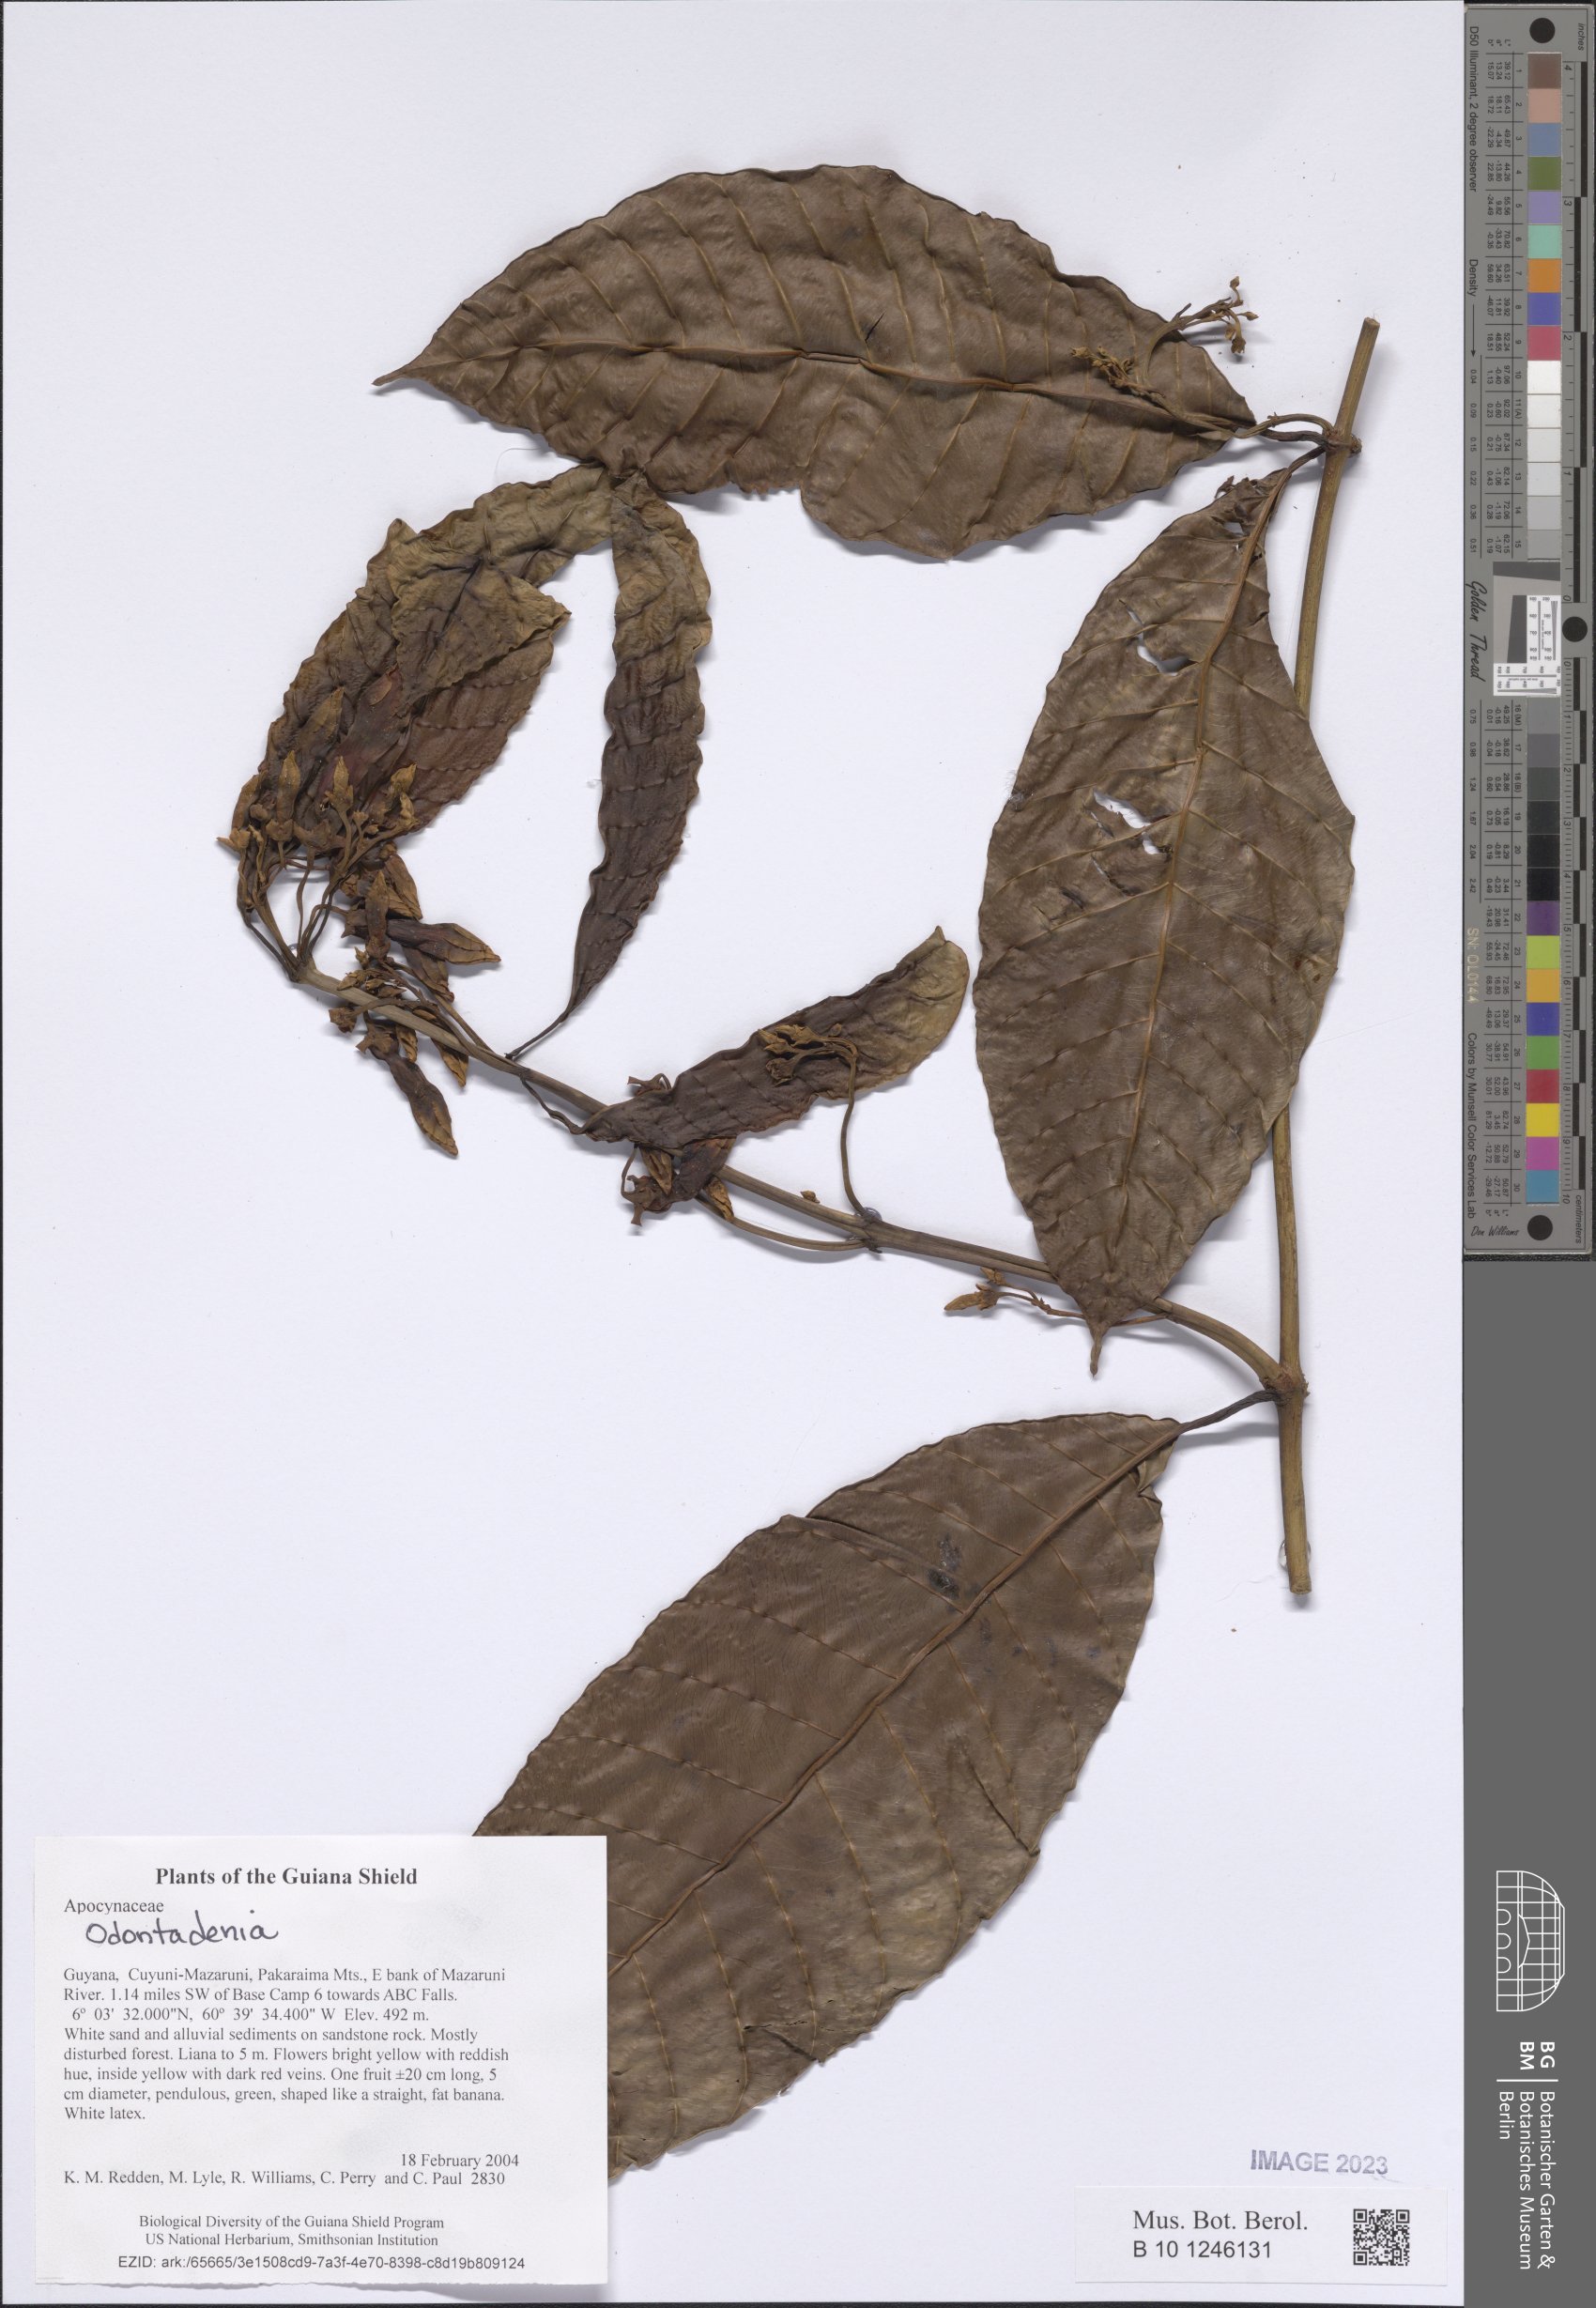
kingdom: Plantae
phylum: Tracheophyta
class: Magnoliopsida
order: Gentianales
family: Apocynaceae
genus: Odontadenia
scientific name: Odontadenia
